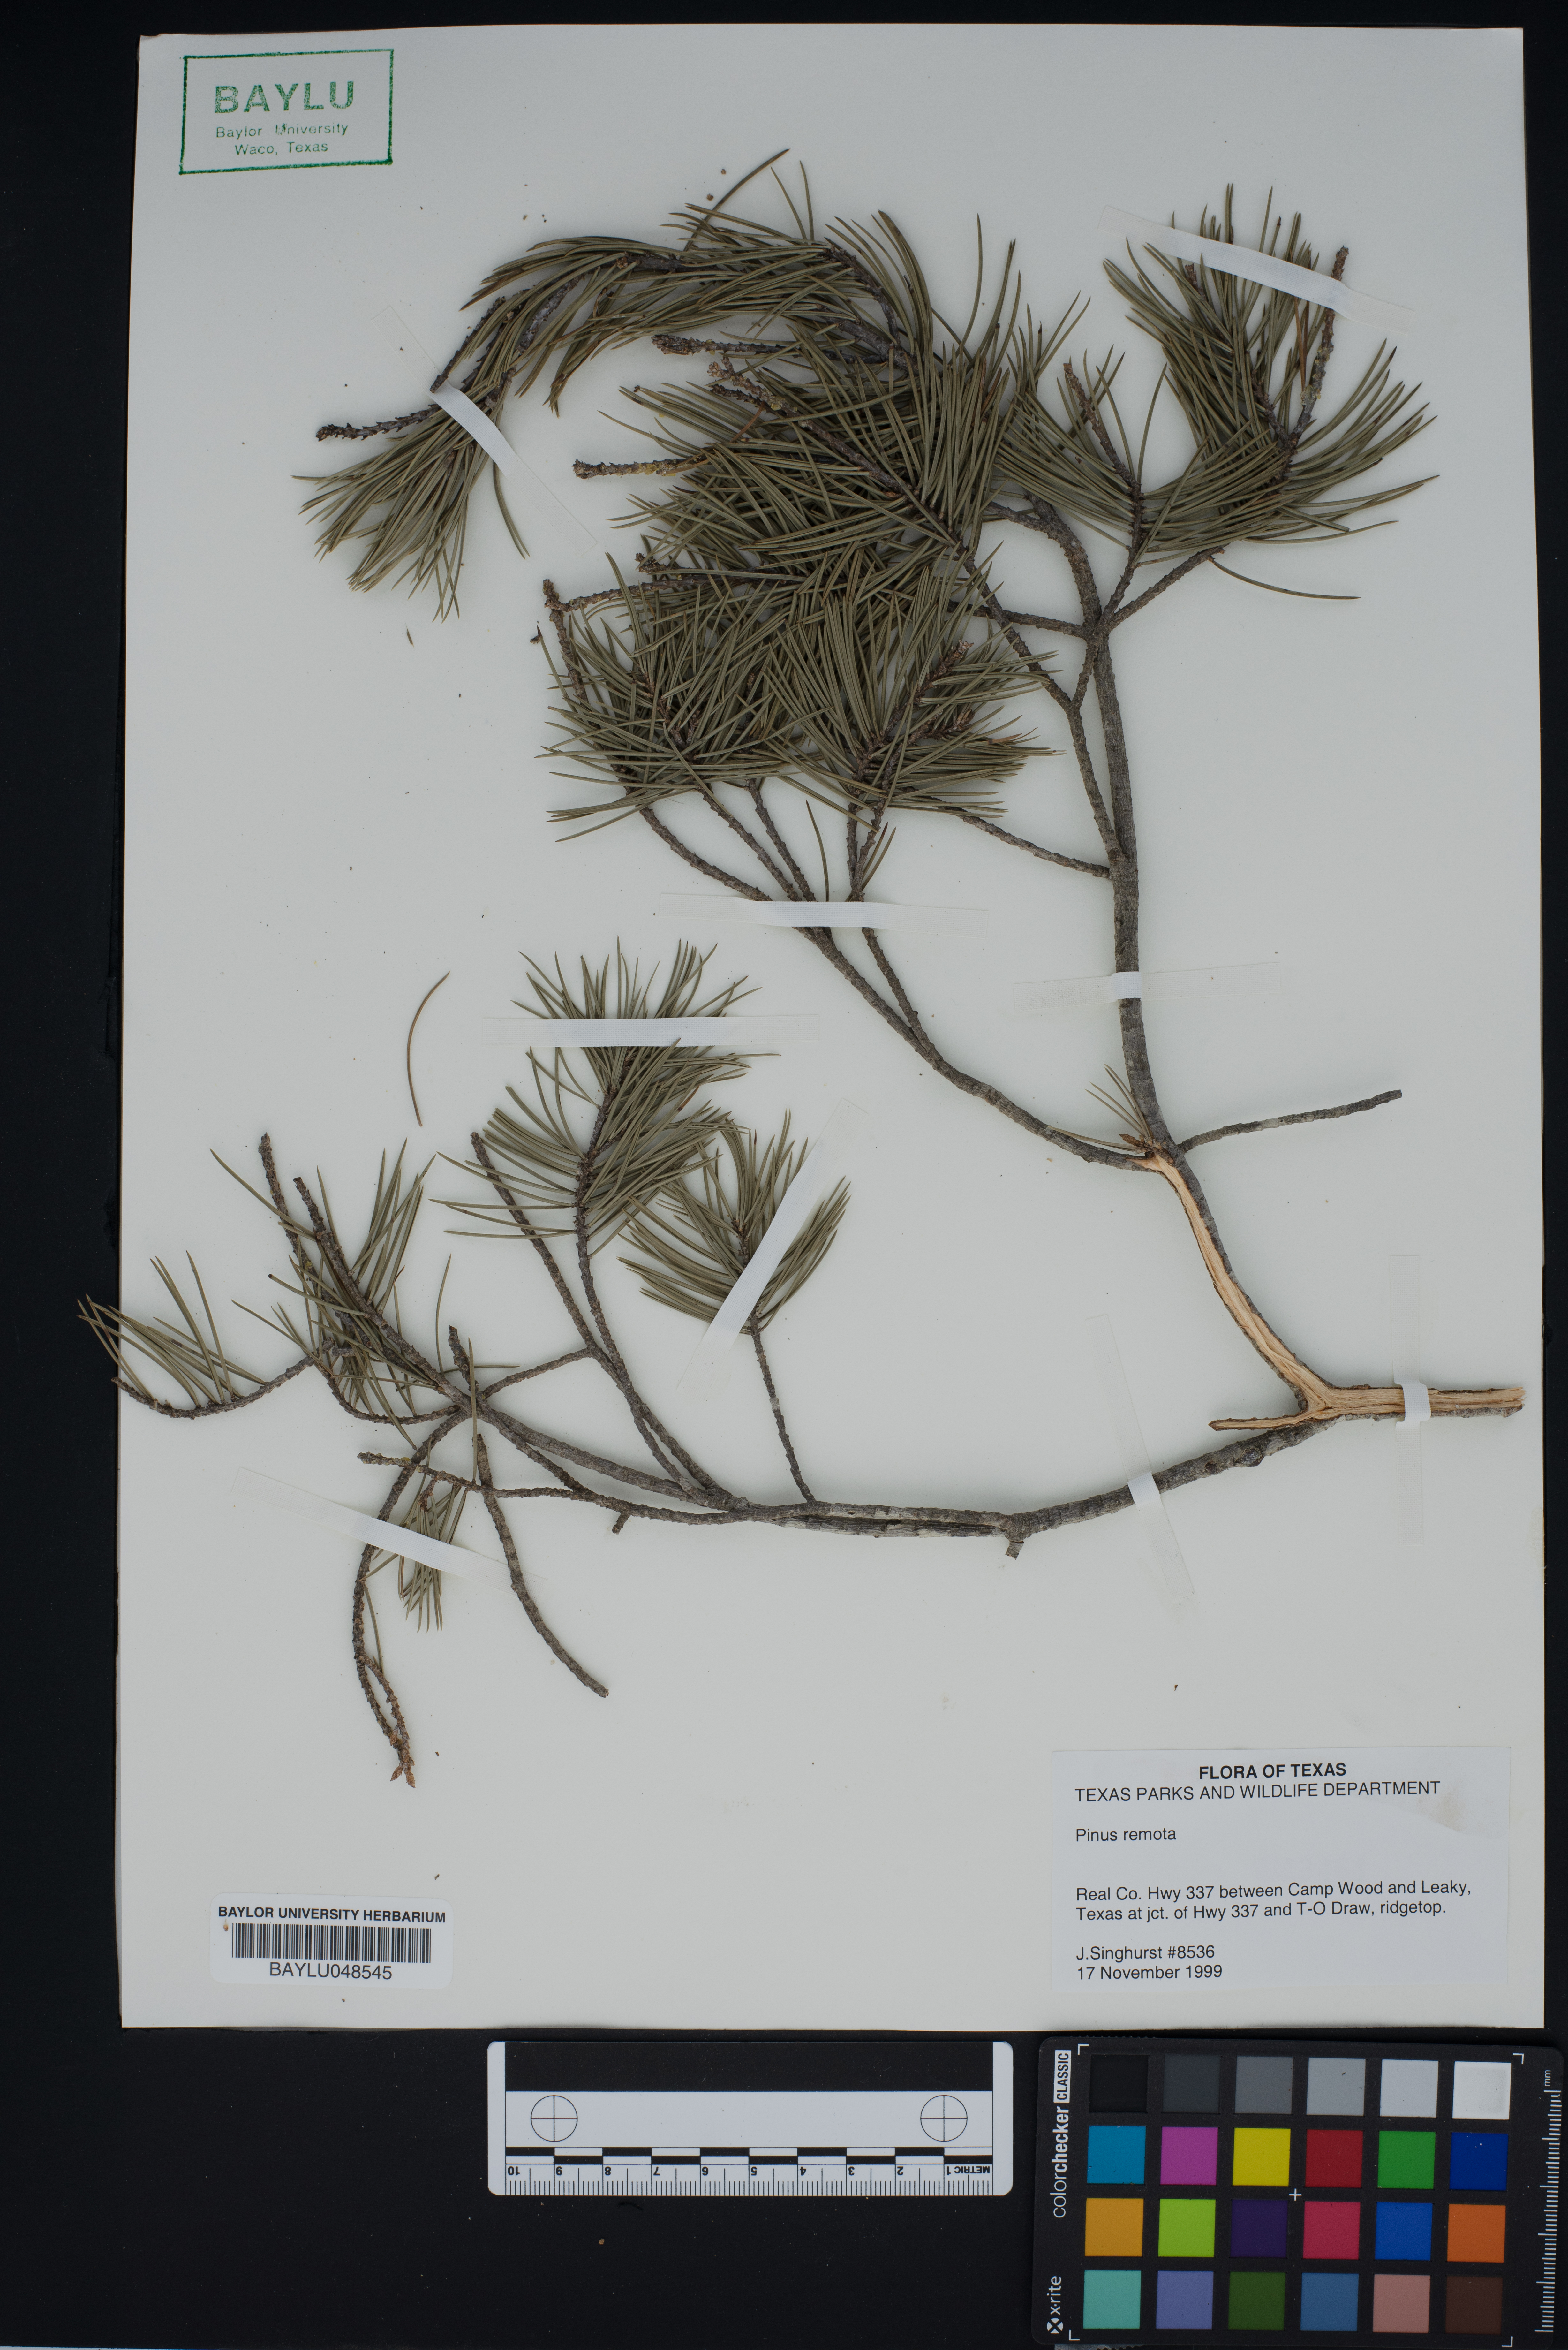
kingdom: Plantae
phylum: Tracheophyta
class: Pinopsida
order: Pinales
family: Pinaceae
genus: Pinus
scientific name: Pinus remota
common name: Nut pine
